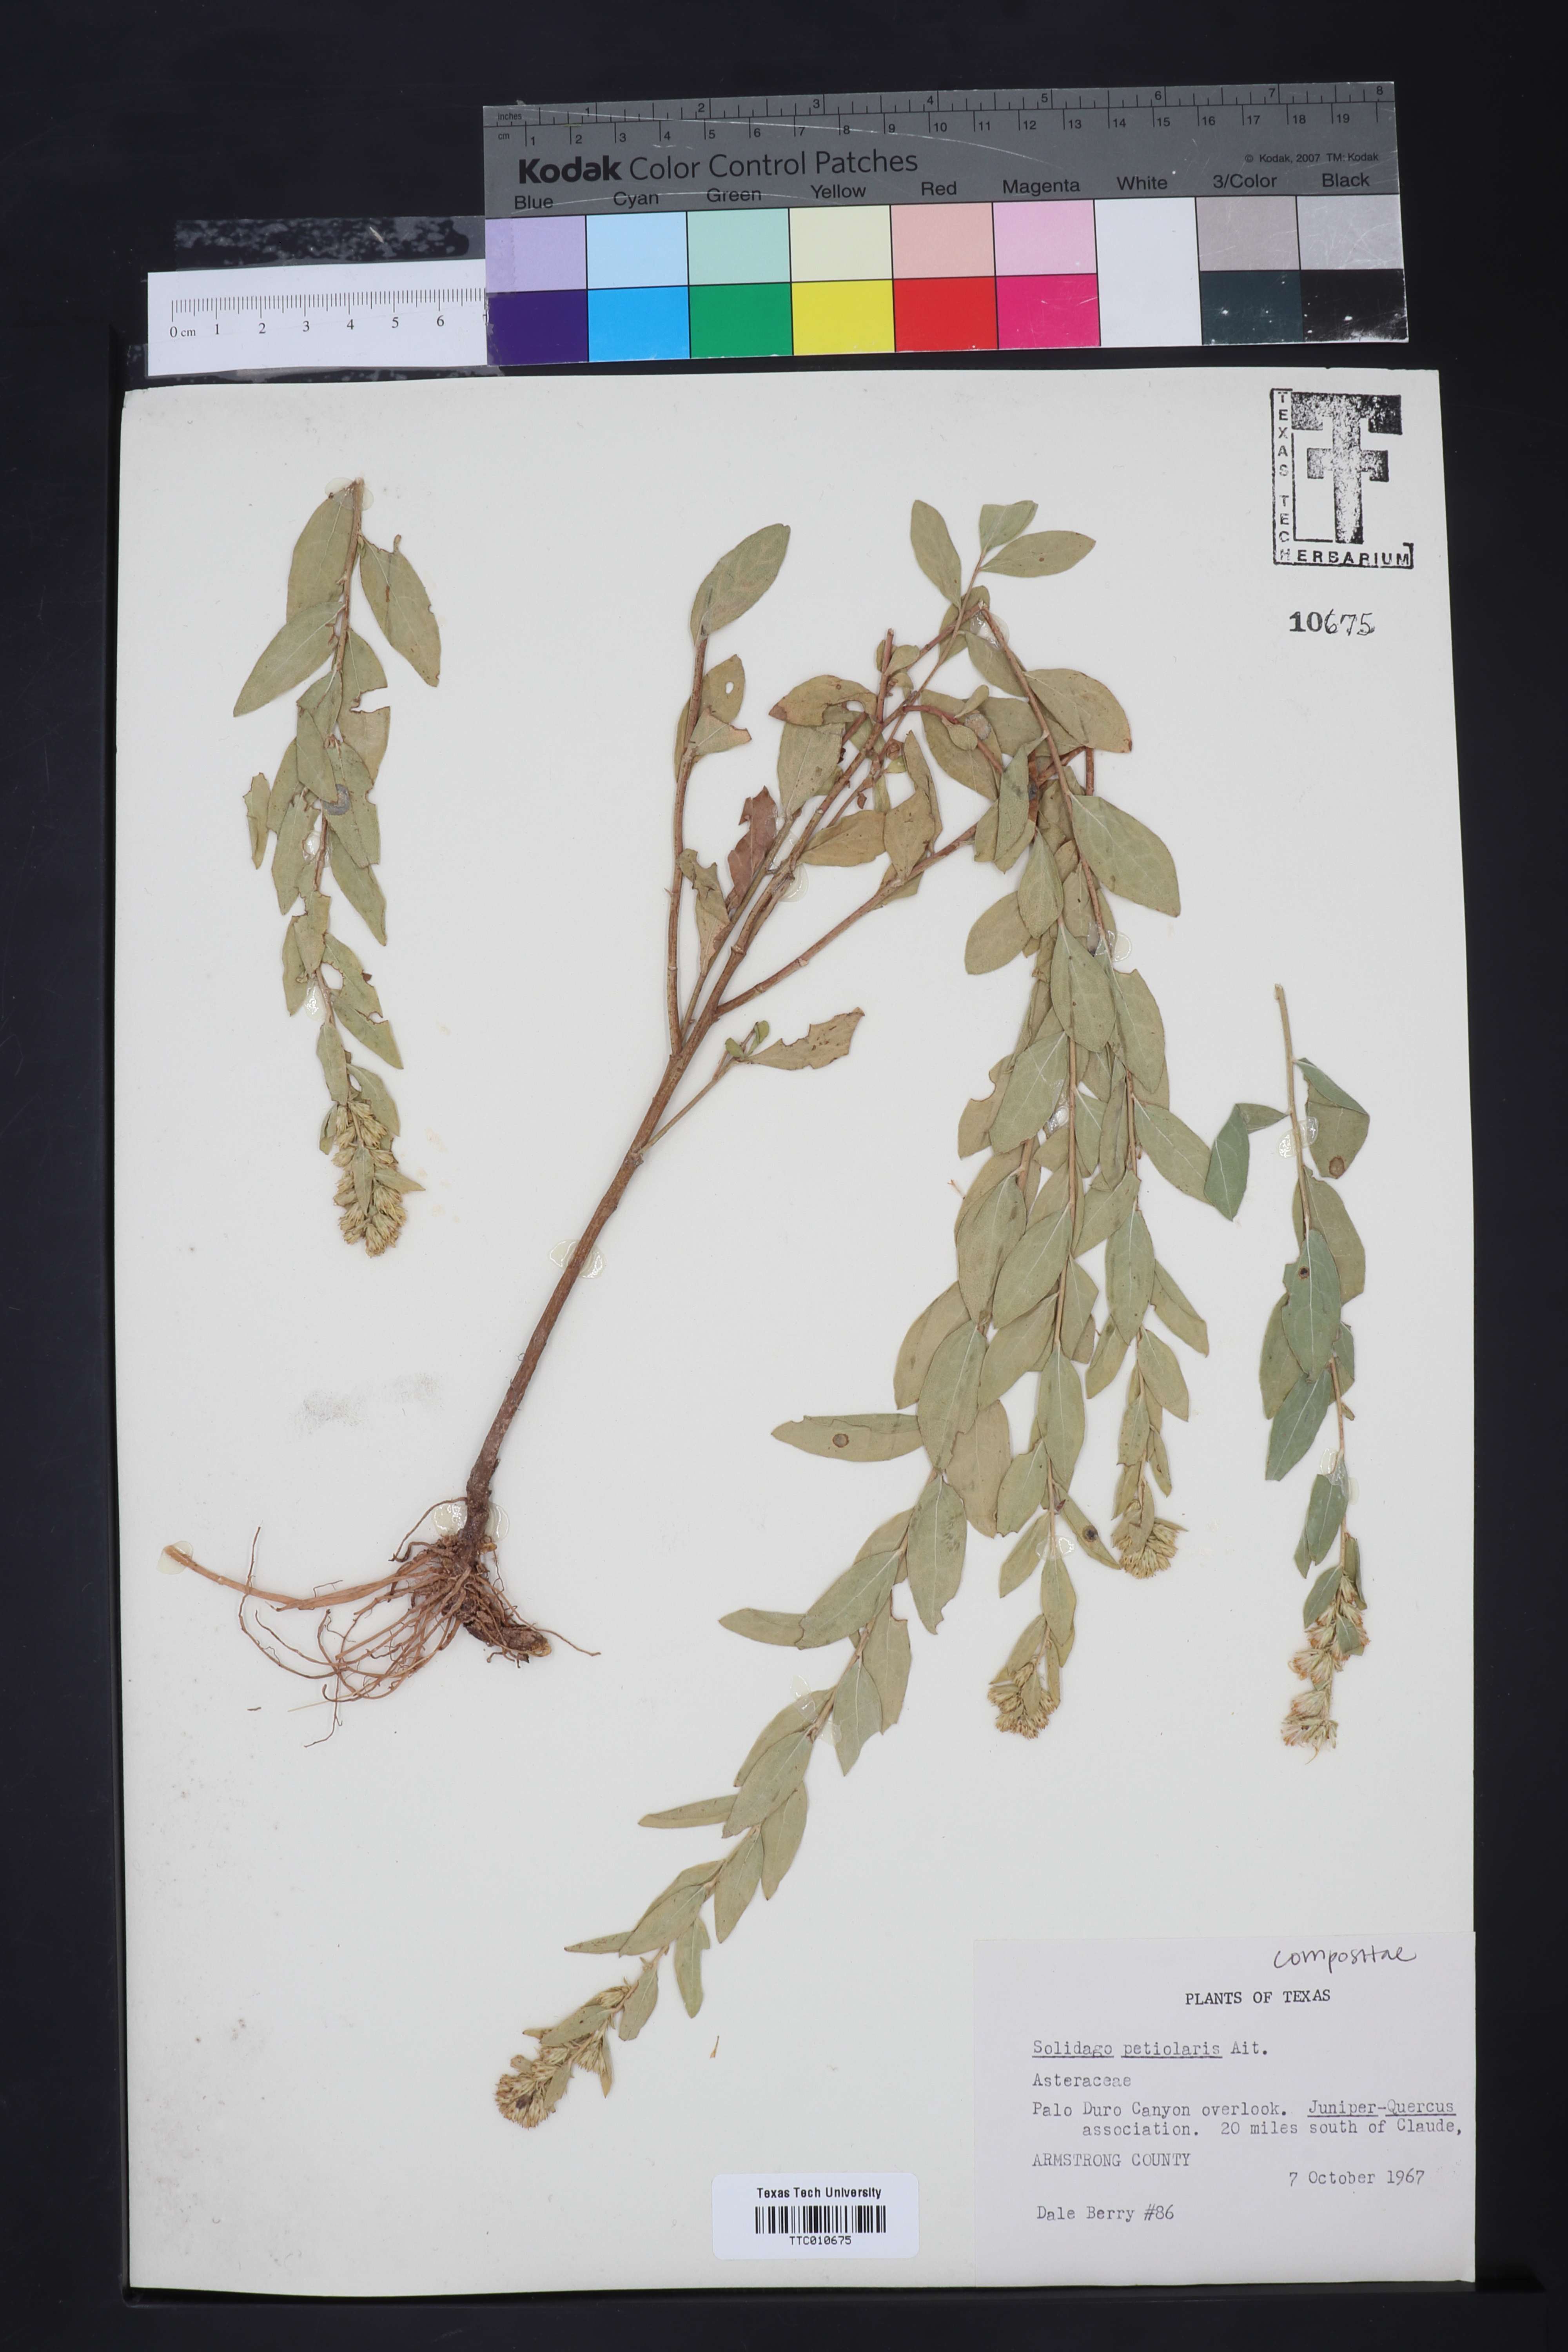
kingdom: Plantae
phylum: Tracheophyta
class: Magnoliopsida
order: Asterales
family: Asteraceae
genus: Solidago
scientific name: Solidago petiolaris
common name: Downy ragged goldenrod
